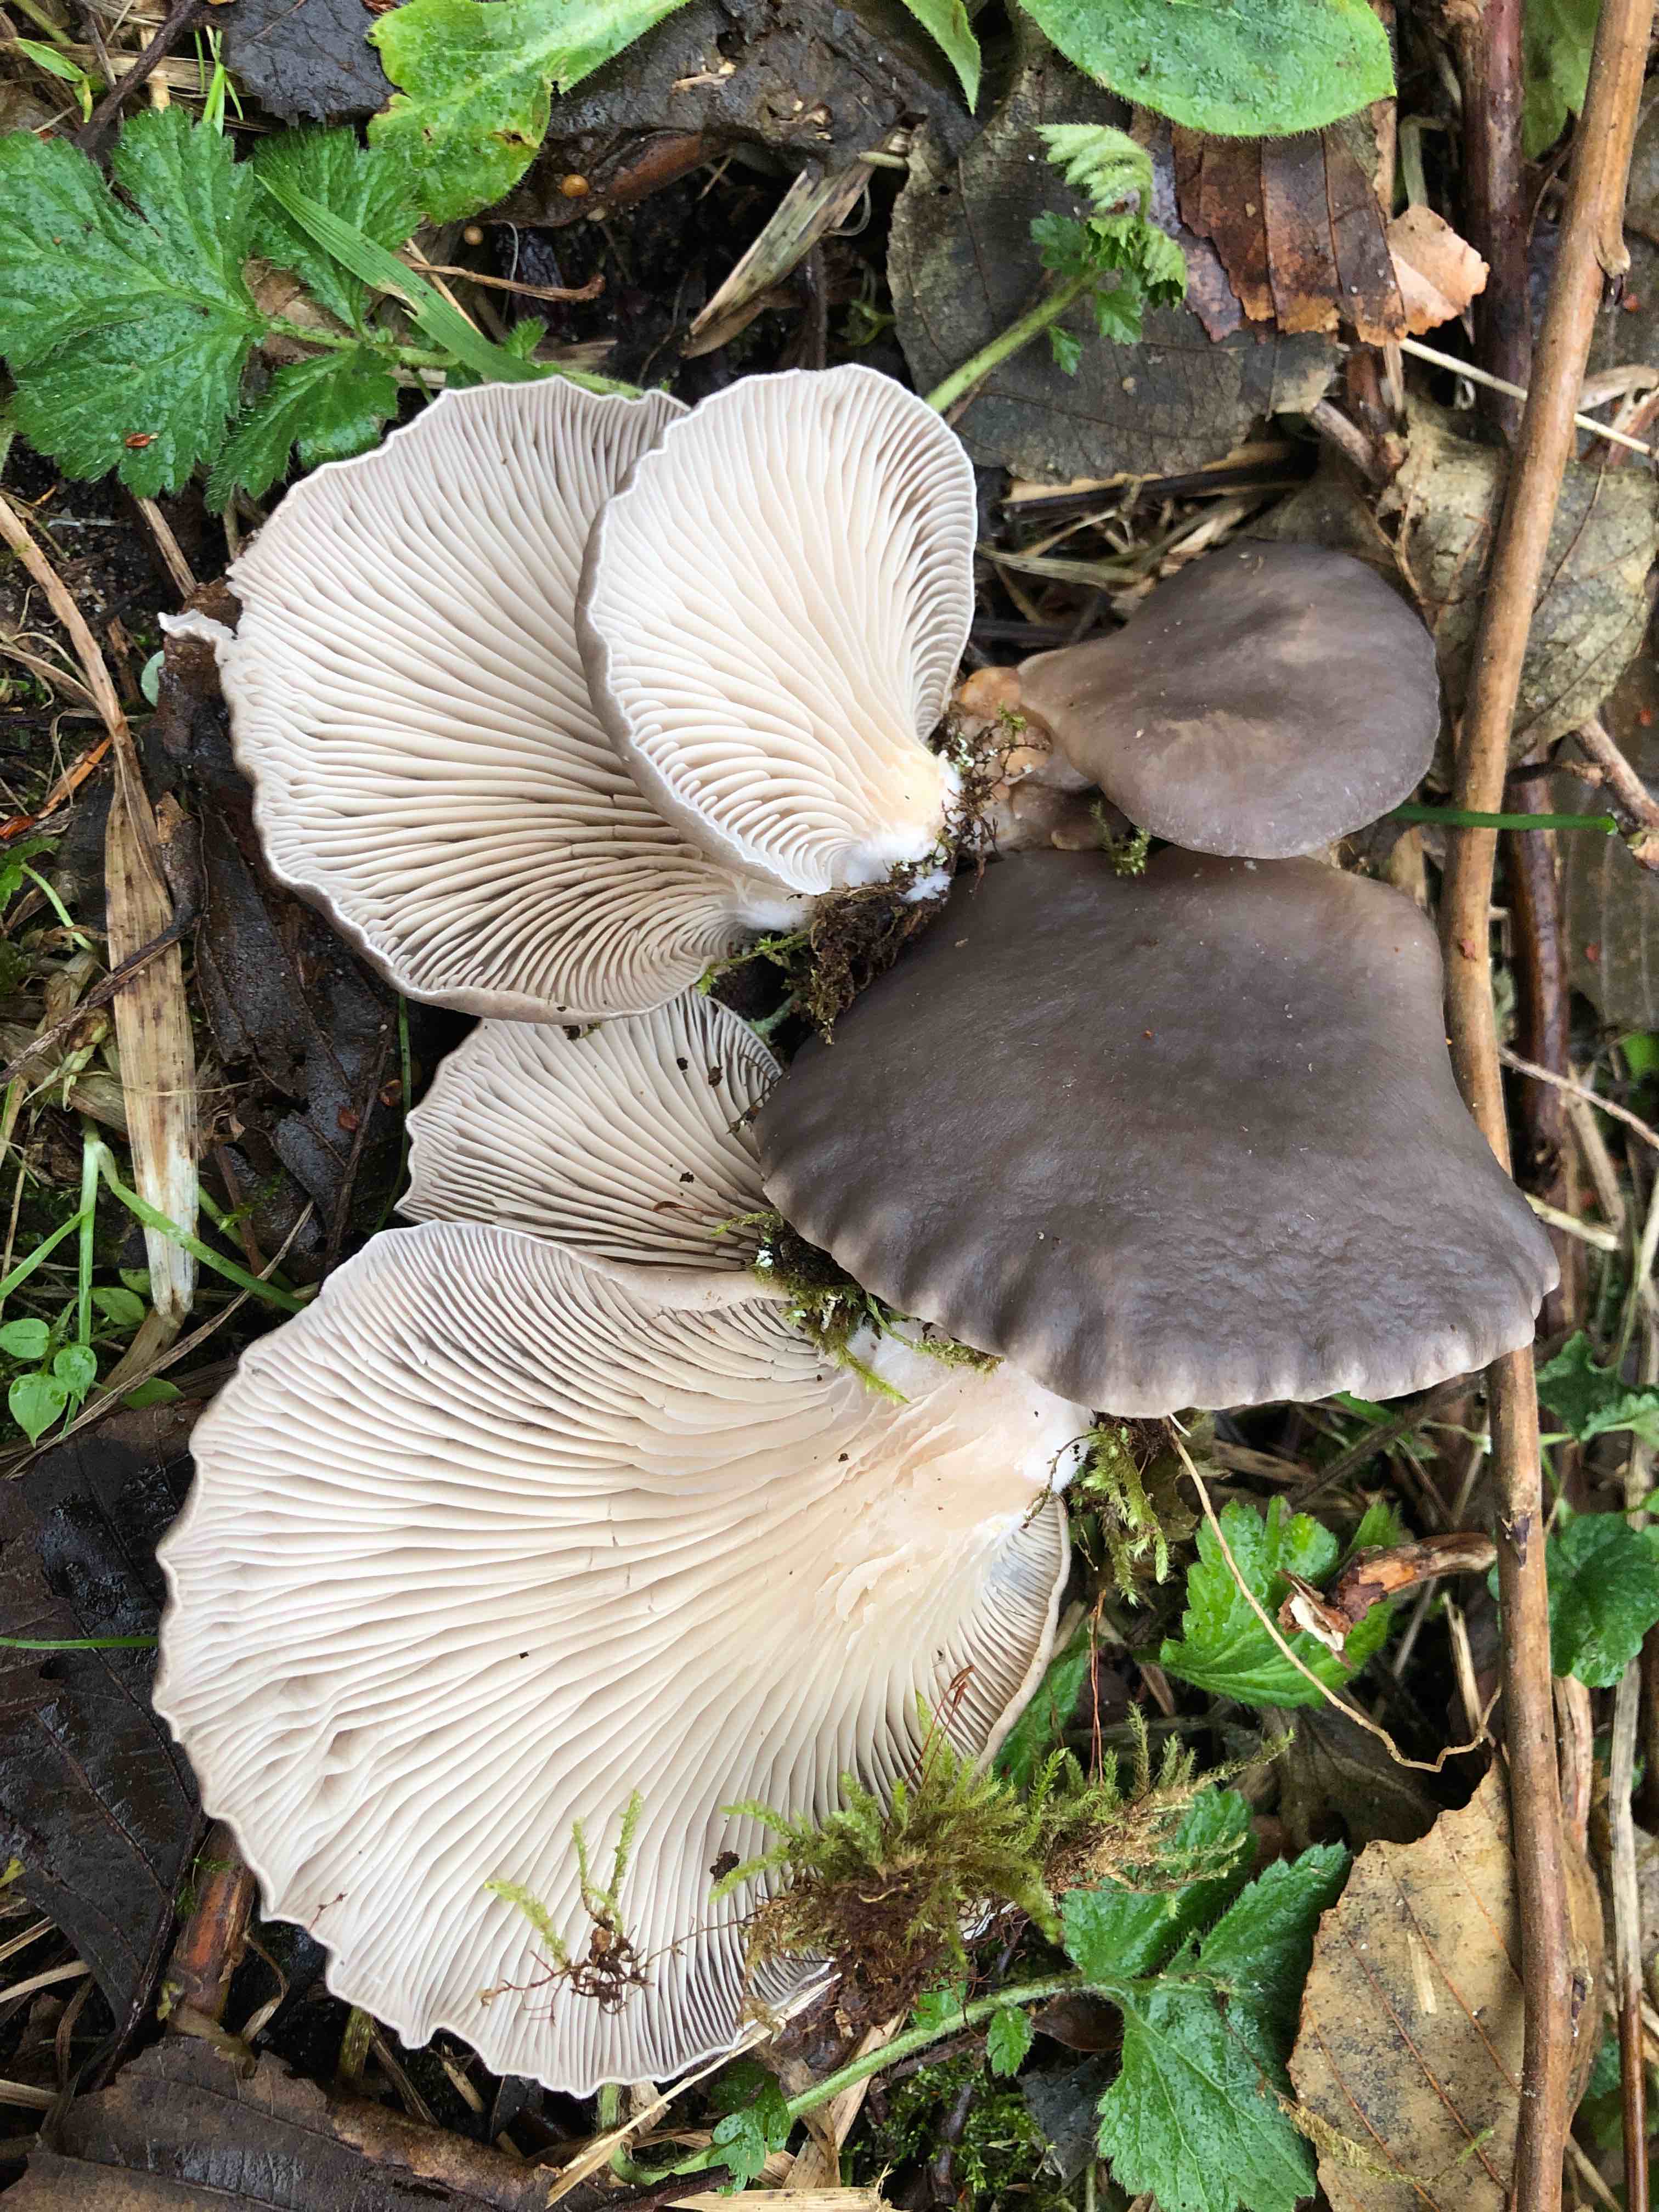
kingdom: Fungi
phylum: Basidiomycota
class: Agaricomycetes
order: Agaricales
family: Pleurotaceae
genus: Pleurotus
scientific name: Pleurotus ostreatus
